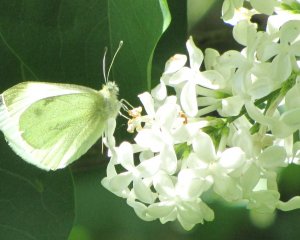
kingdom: Animalia
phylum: Arthropoda
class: Insecta
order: Lepidoptera
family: Pieridae
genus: Pieris
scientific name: Pieris rapae
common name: Cabbage White
